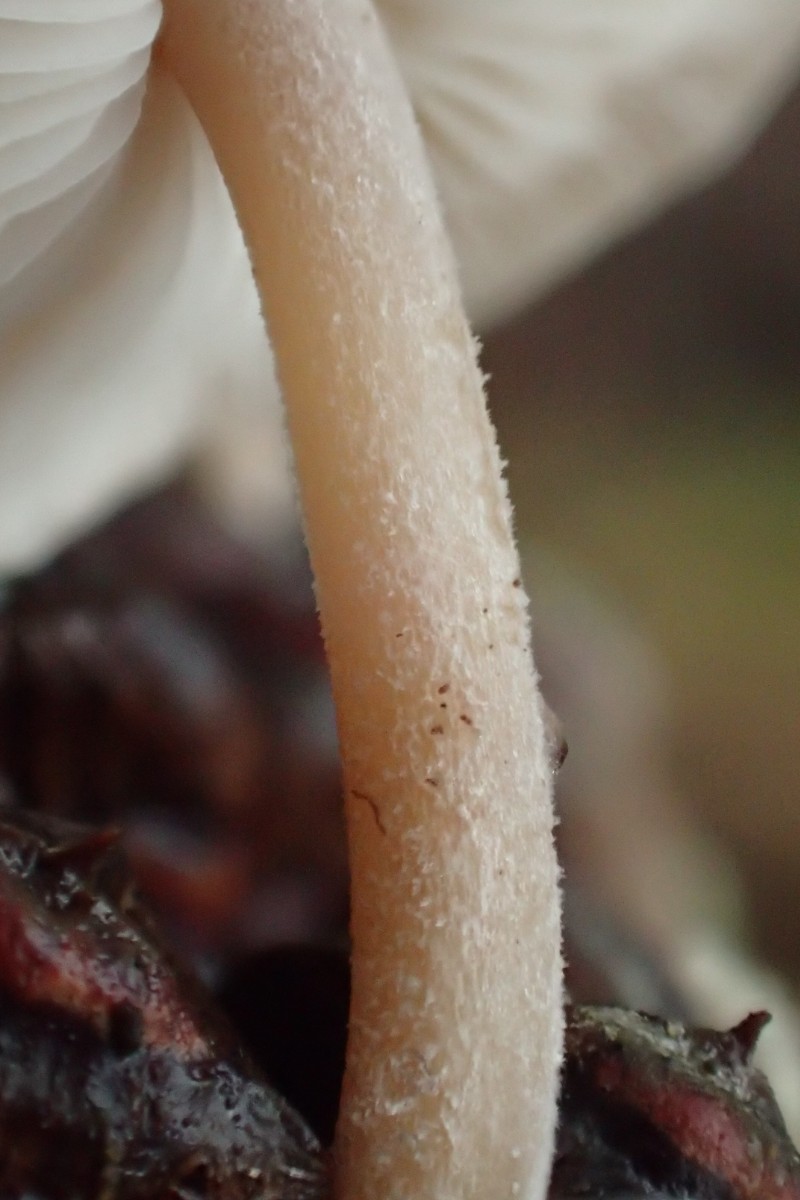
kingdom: Fungi
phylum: Basidiomycota
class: Agaricomycetes
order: Agaricales
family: Marasmiaceae
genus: Baeospora
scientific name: Baeospora myosura
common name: koglebruskhat
